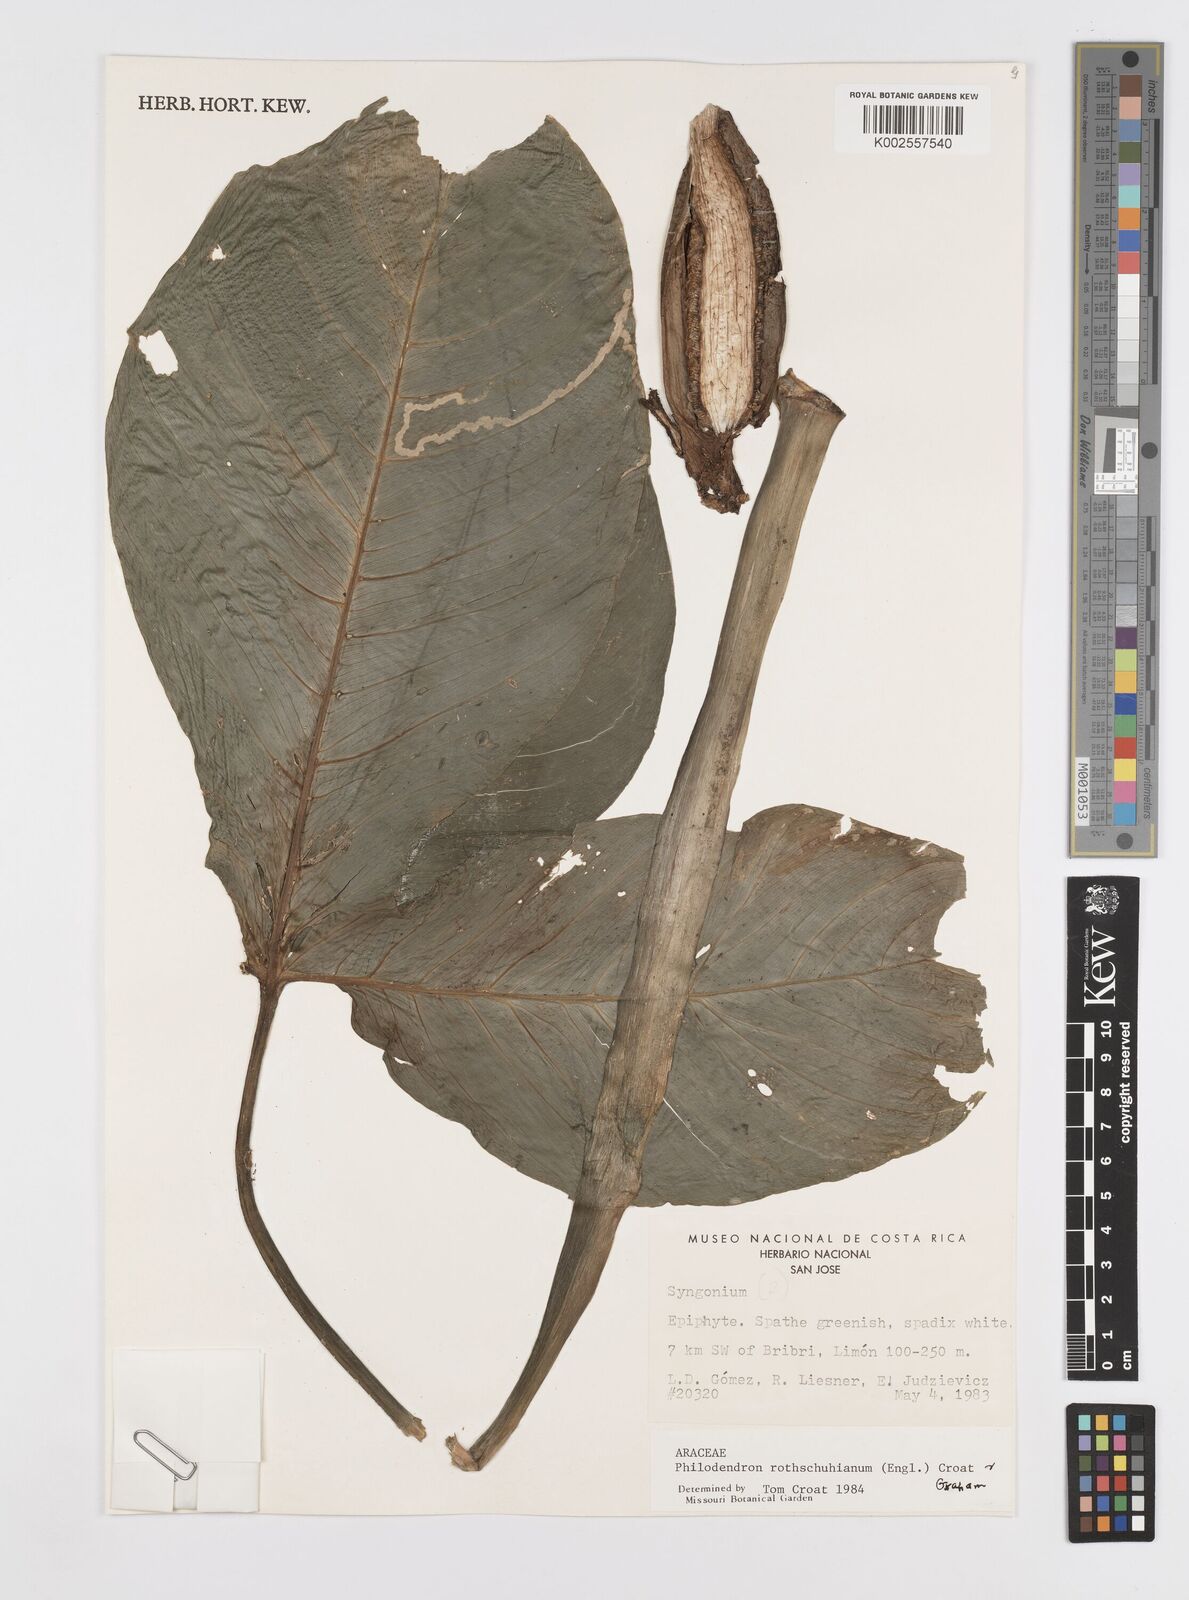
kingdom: Plantae
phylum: Tracheophyta
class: Liliopsida
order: Alismatales
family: Araceae
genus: Philodendron
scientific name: Philodendron rothschuhianum
